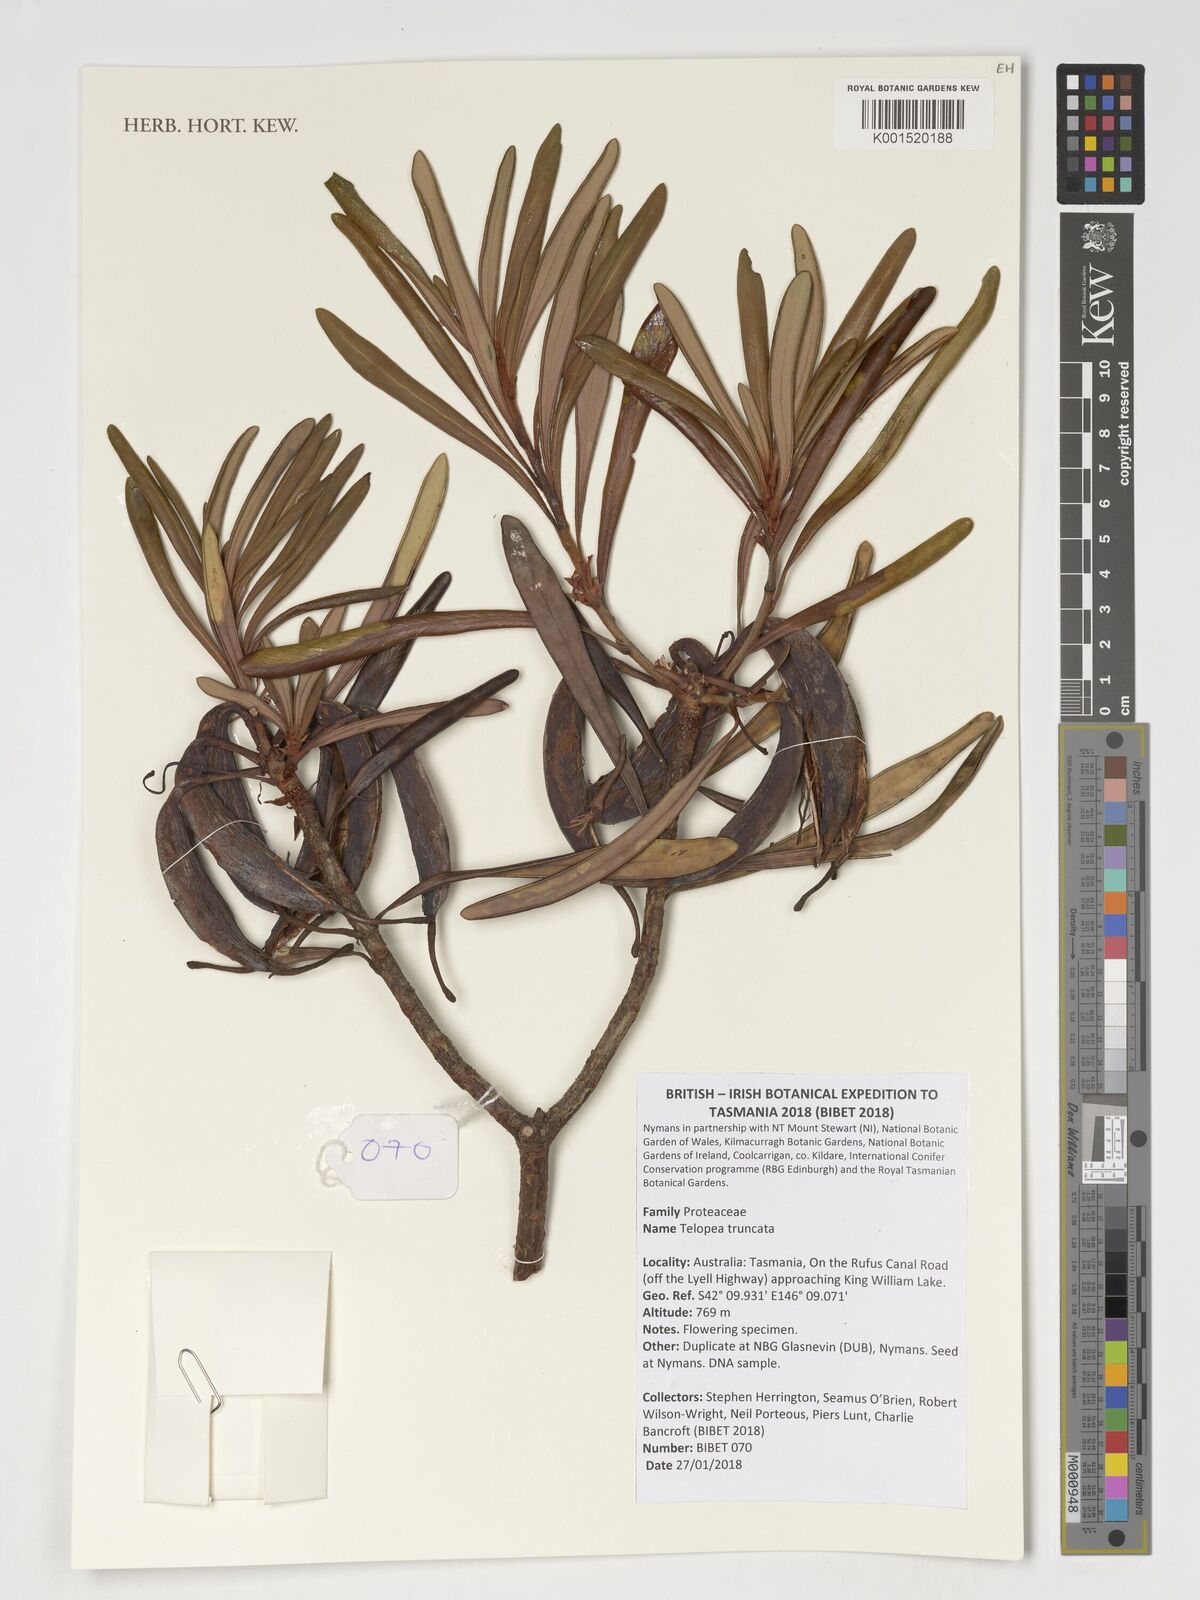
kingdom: Plantae
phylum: Tracheophyta
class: Magnoliopsida
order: Proteales
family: Proteaceae
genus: Telopea
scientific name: Telopea truncata
